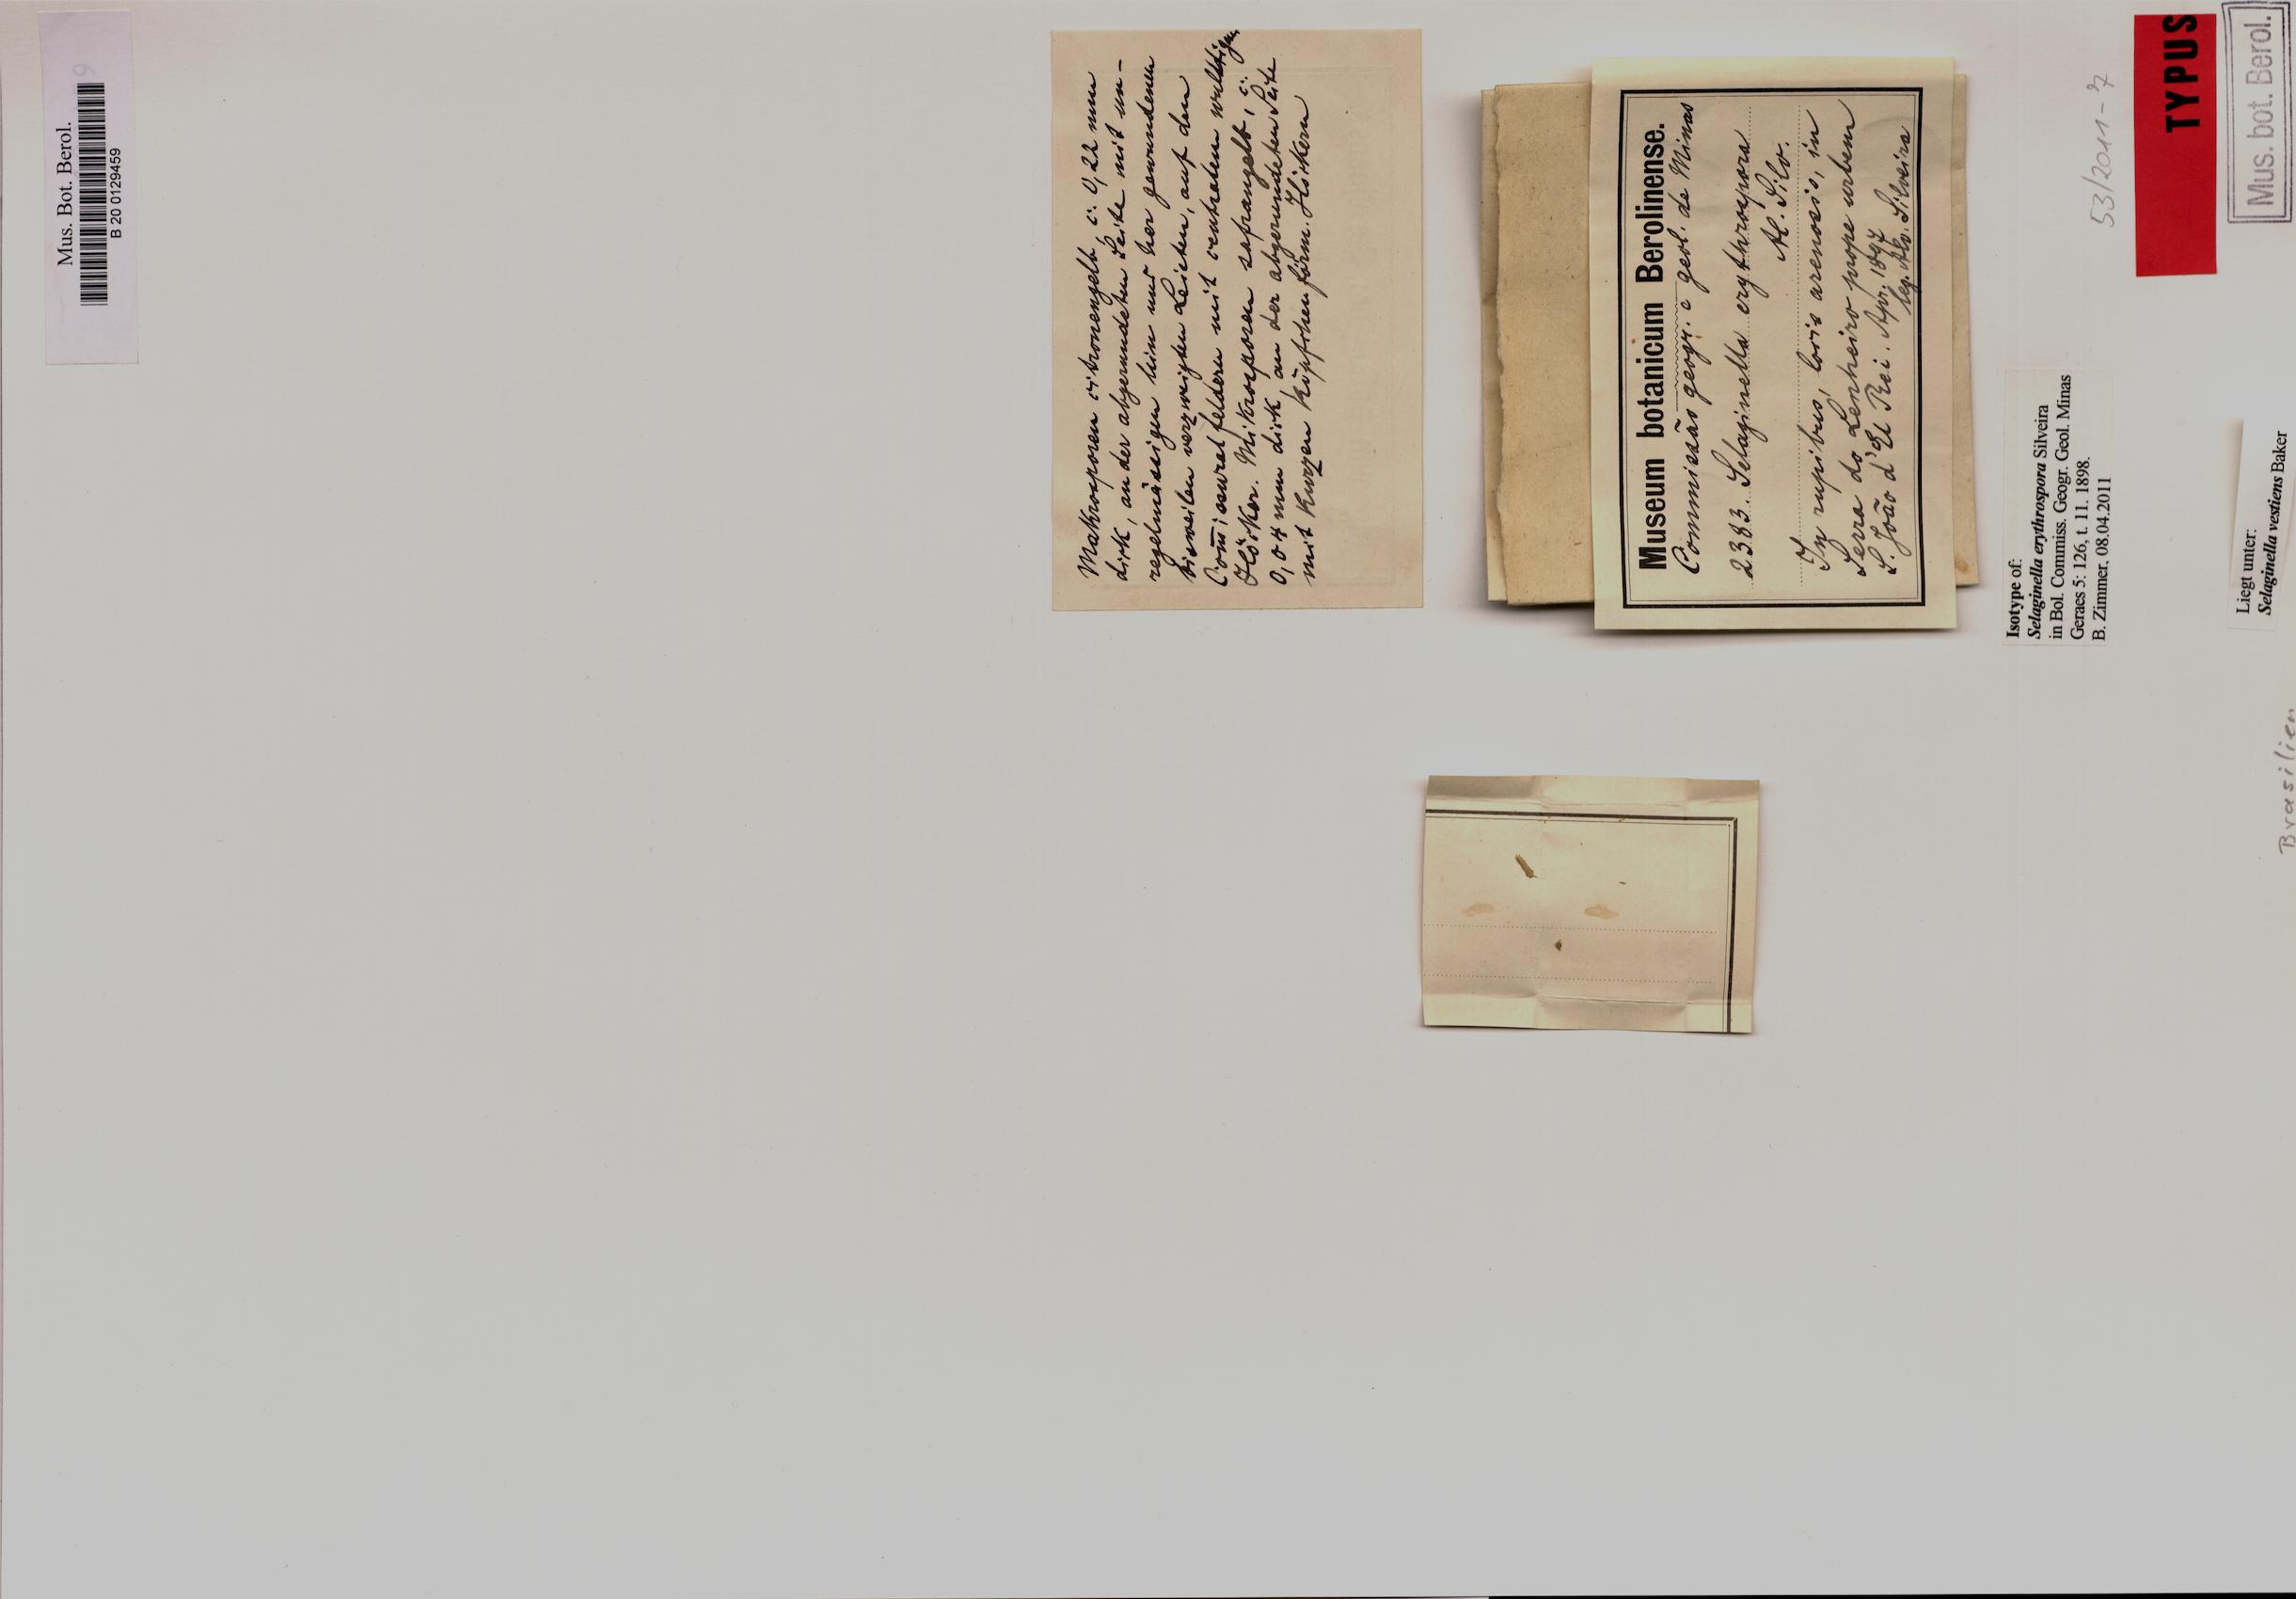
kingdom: Plantae
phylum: Tracheophyta
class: Lycopodiopsida
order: Selaginellales
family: Selaginellaceae
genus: Selaginella
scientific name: Selaginella vestiens
